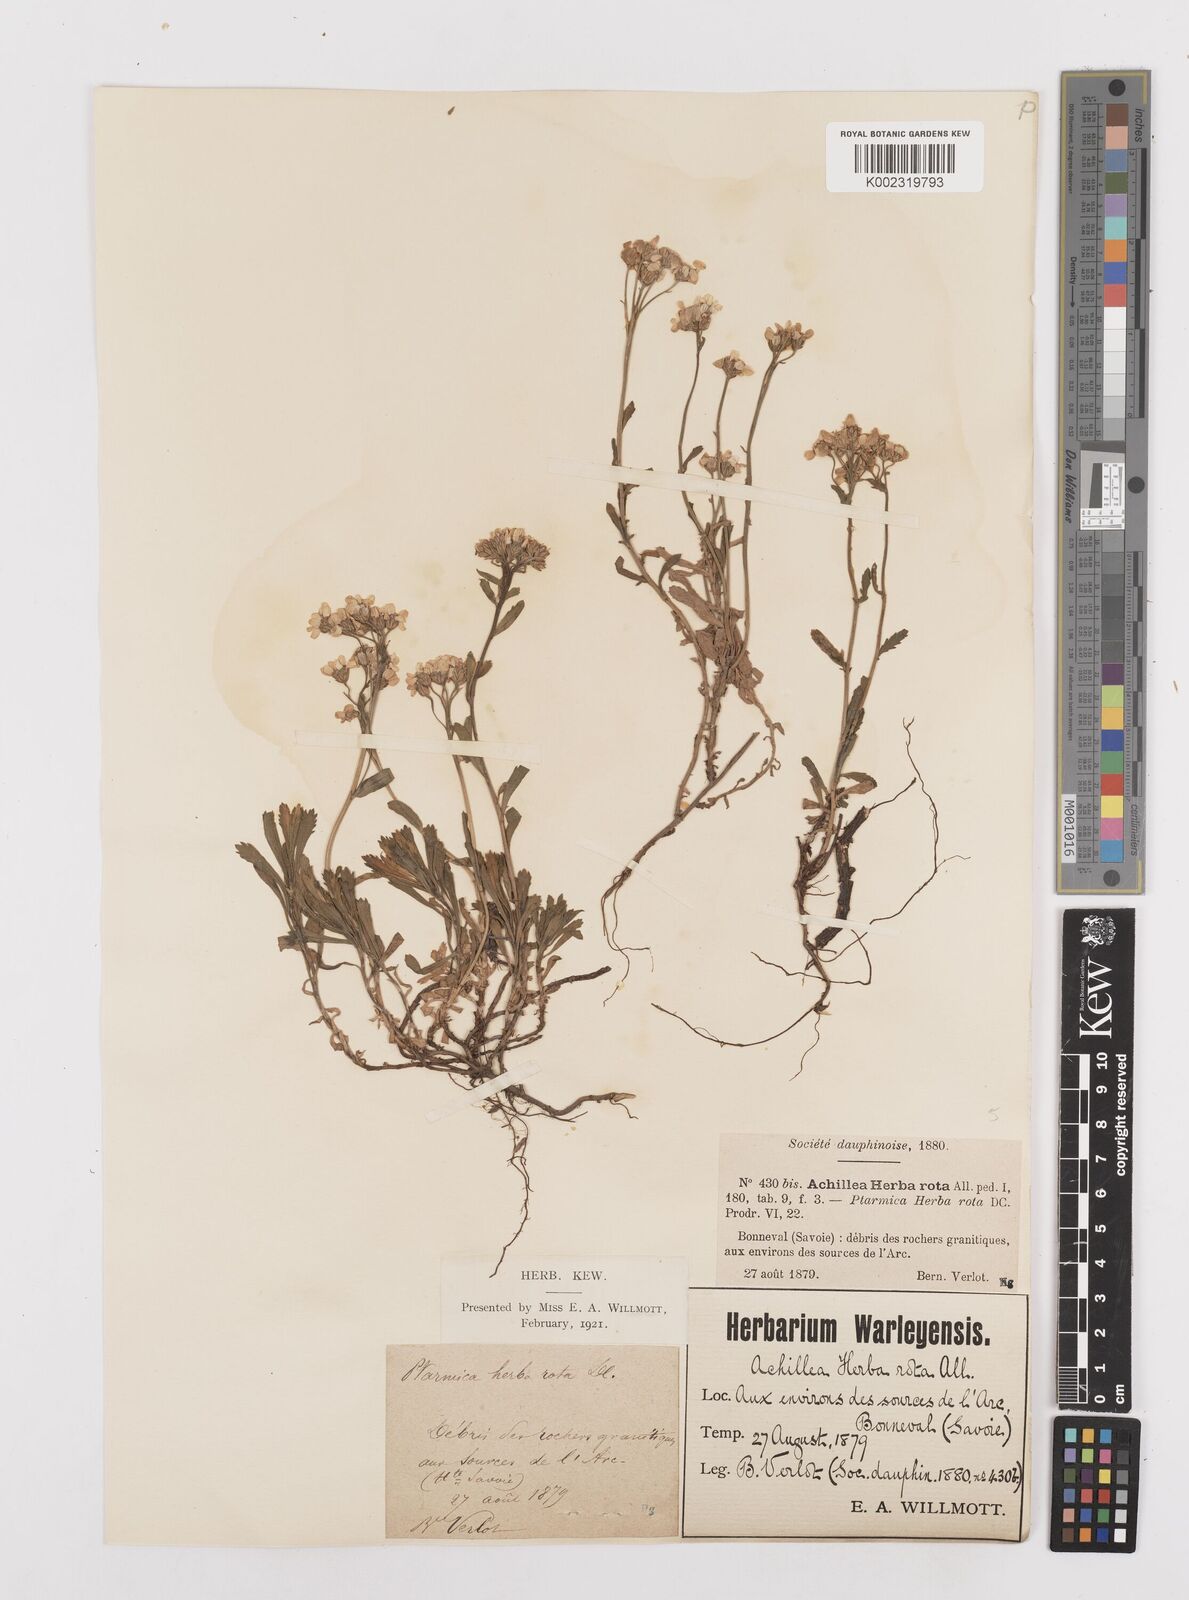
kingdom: Plantae
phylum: Tracheophyta
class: Magnoliopsida
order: Asterales
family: Asteraceae
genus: Achillea
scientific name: Achillea erba-rotta
